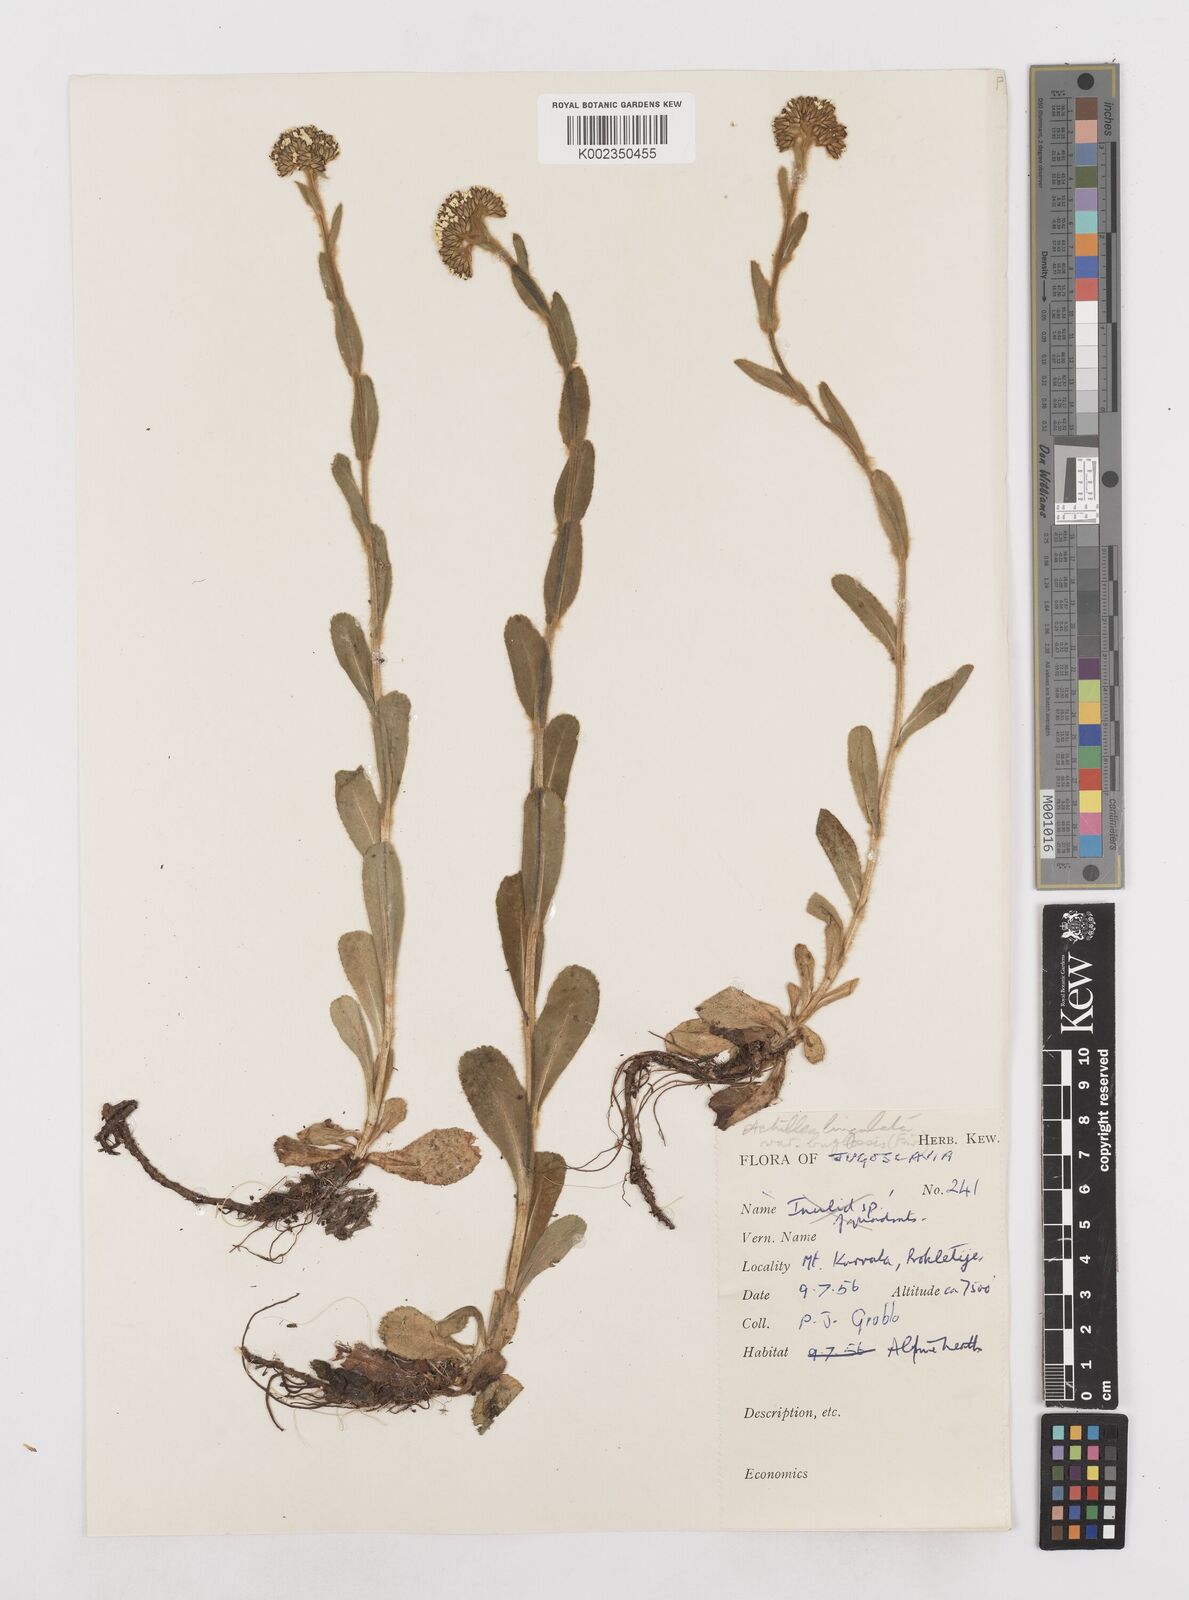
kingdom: Plantae
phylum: Tracheophyta
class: Magnoliopsida
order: Asterales
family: Asteraceae
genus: Achillea
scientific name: Achillea lingulata
